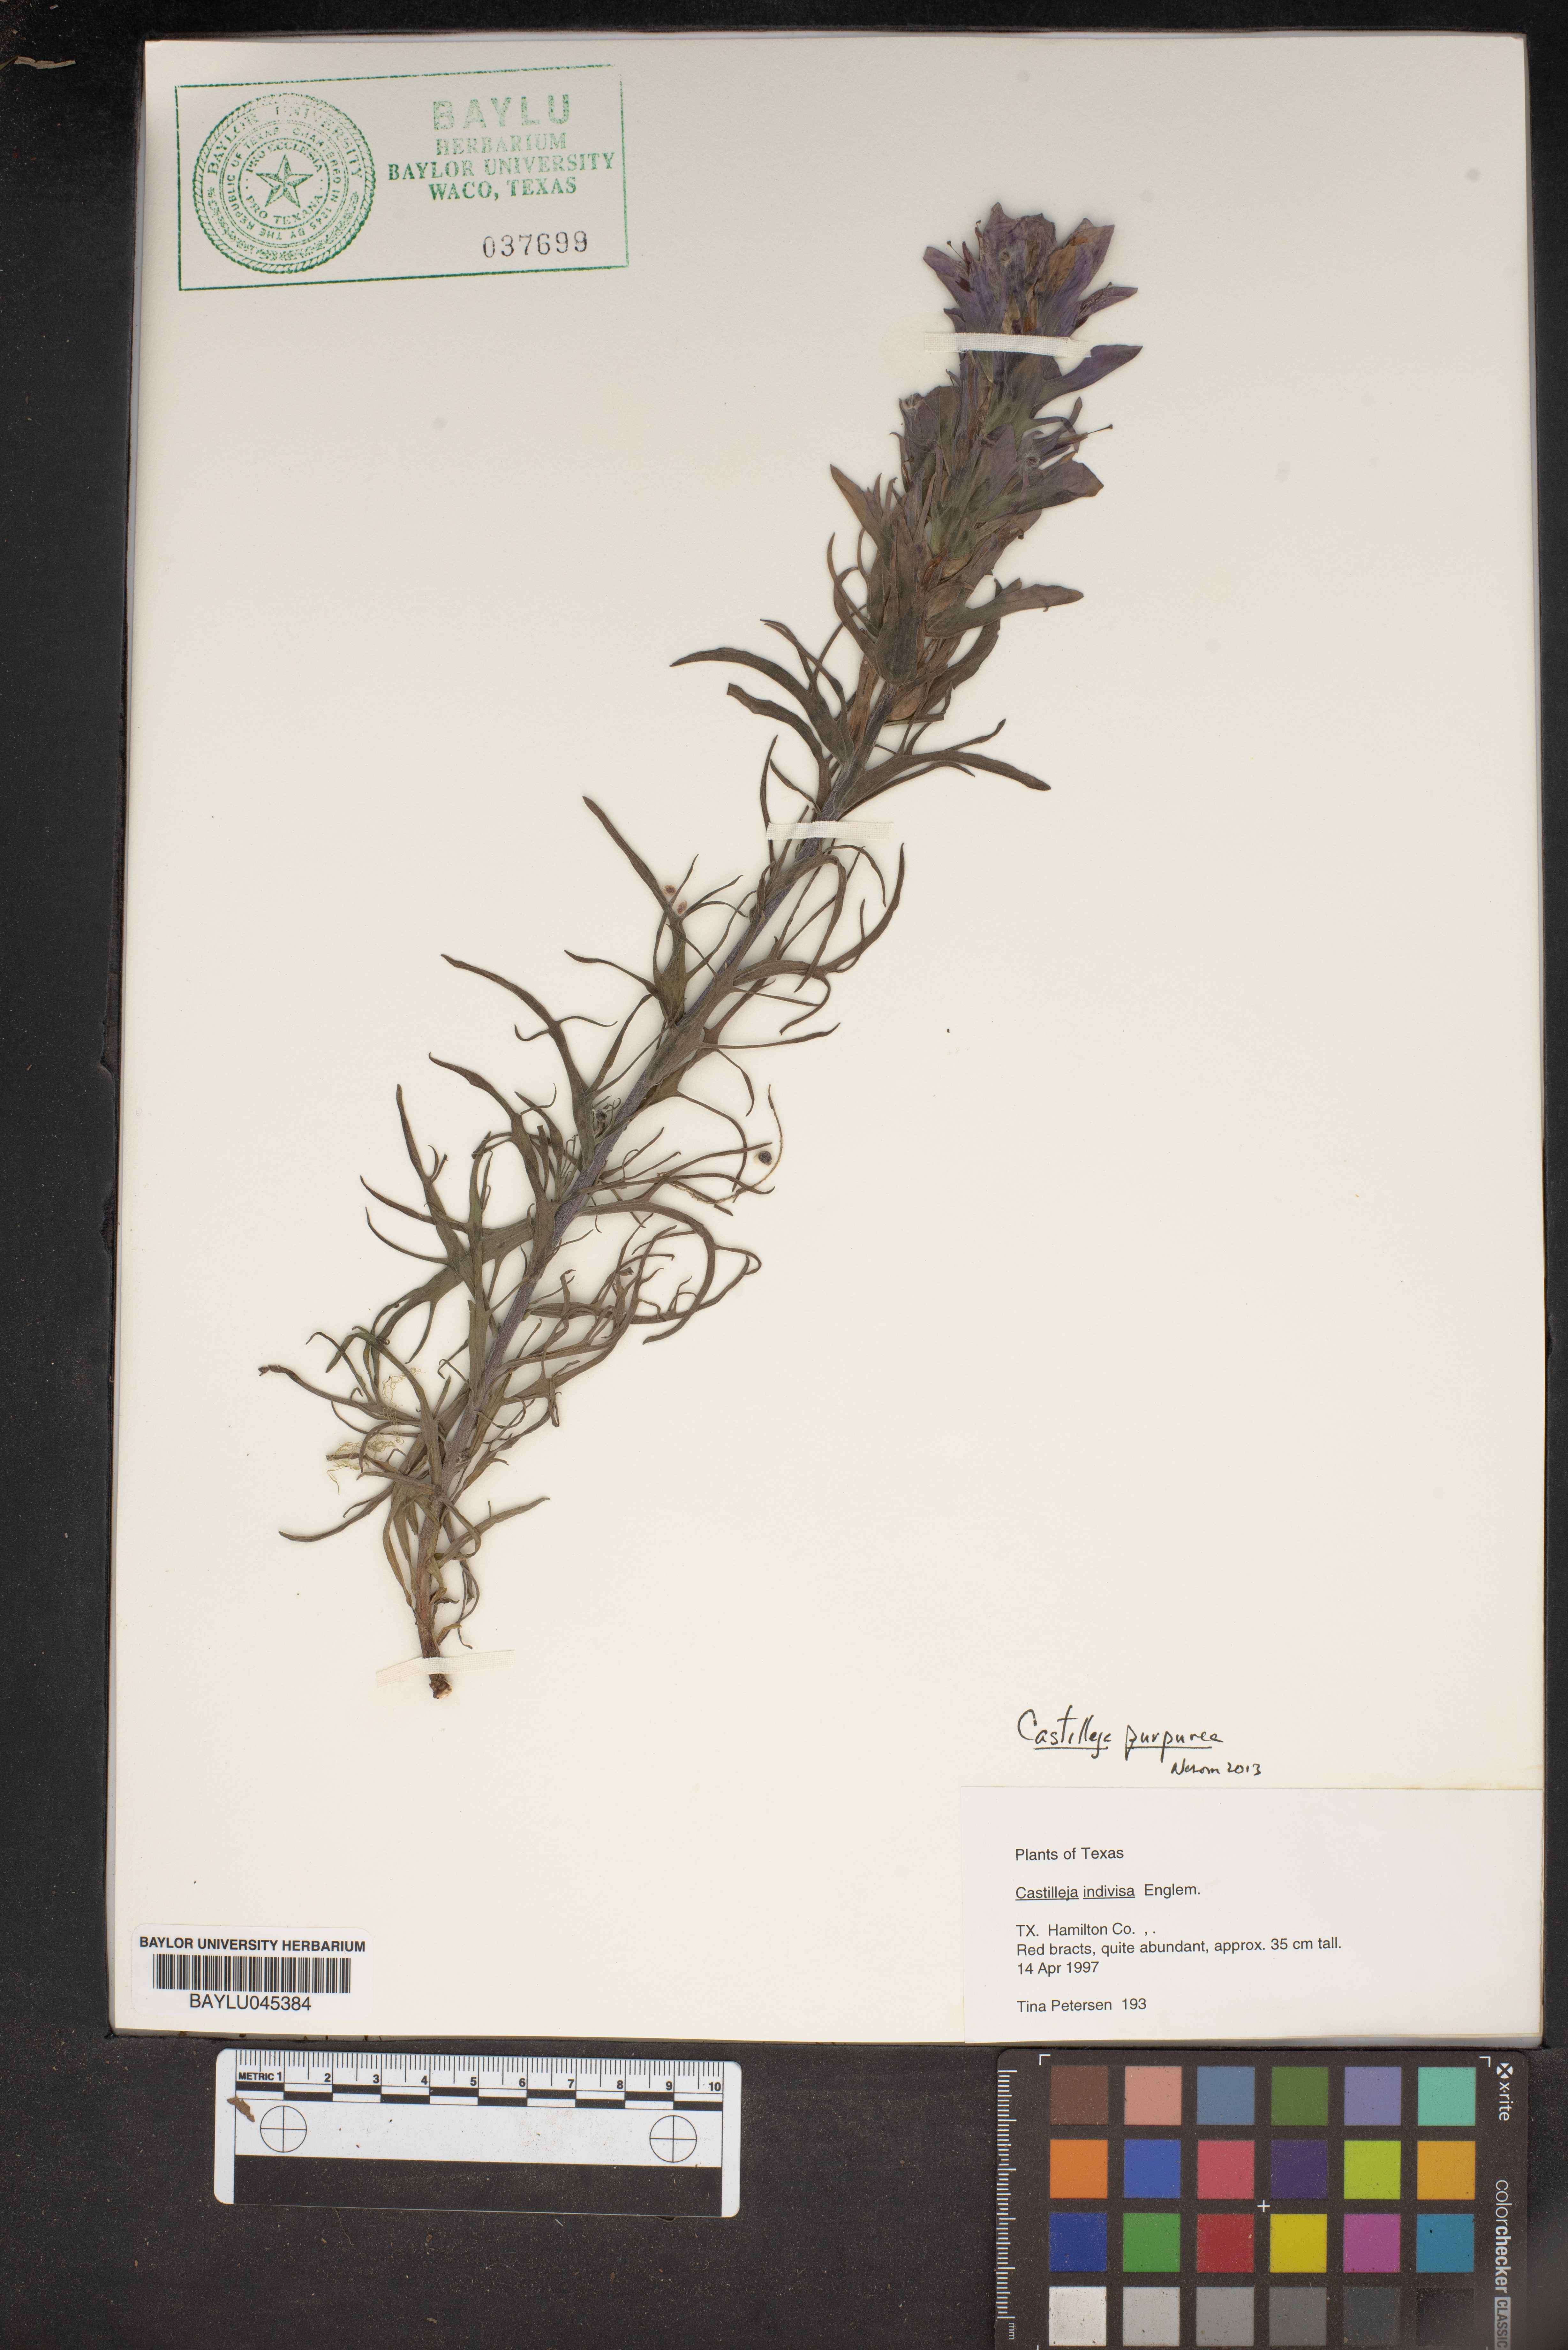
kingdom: Plantae
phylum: Tracheophyta
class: Magnoliopsida
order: Lamiales
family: Orobanchaceae
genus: Castilleja
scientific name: Castilleja purpurea
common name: Plains paintbrush
